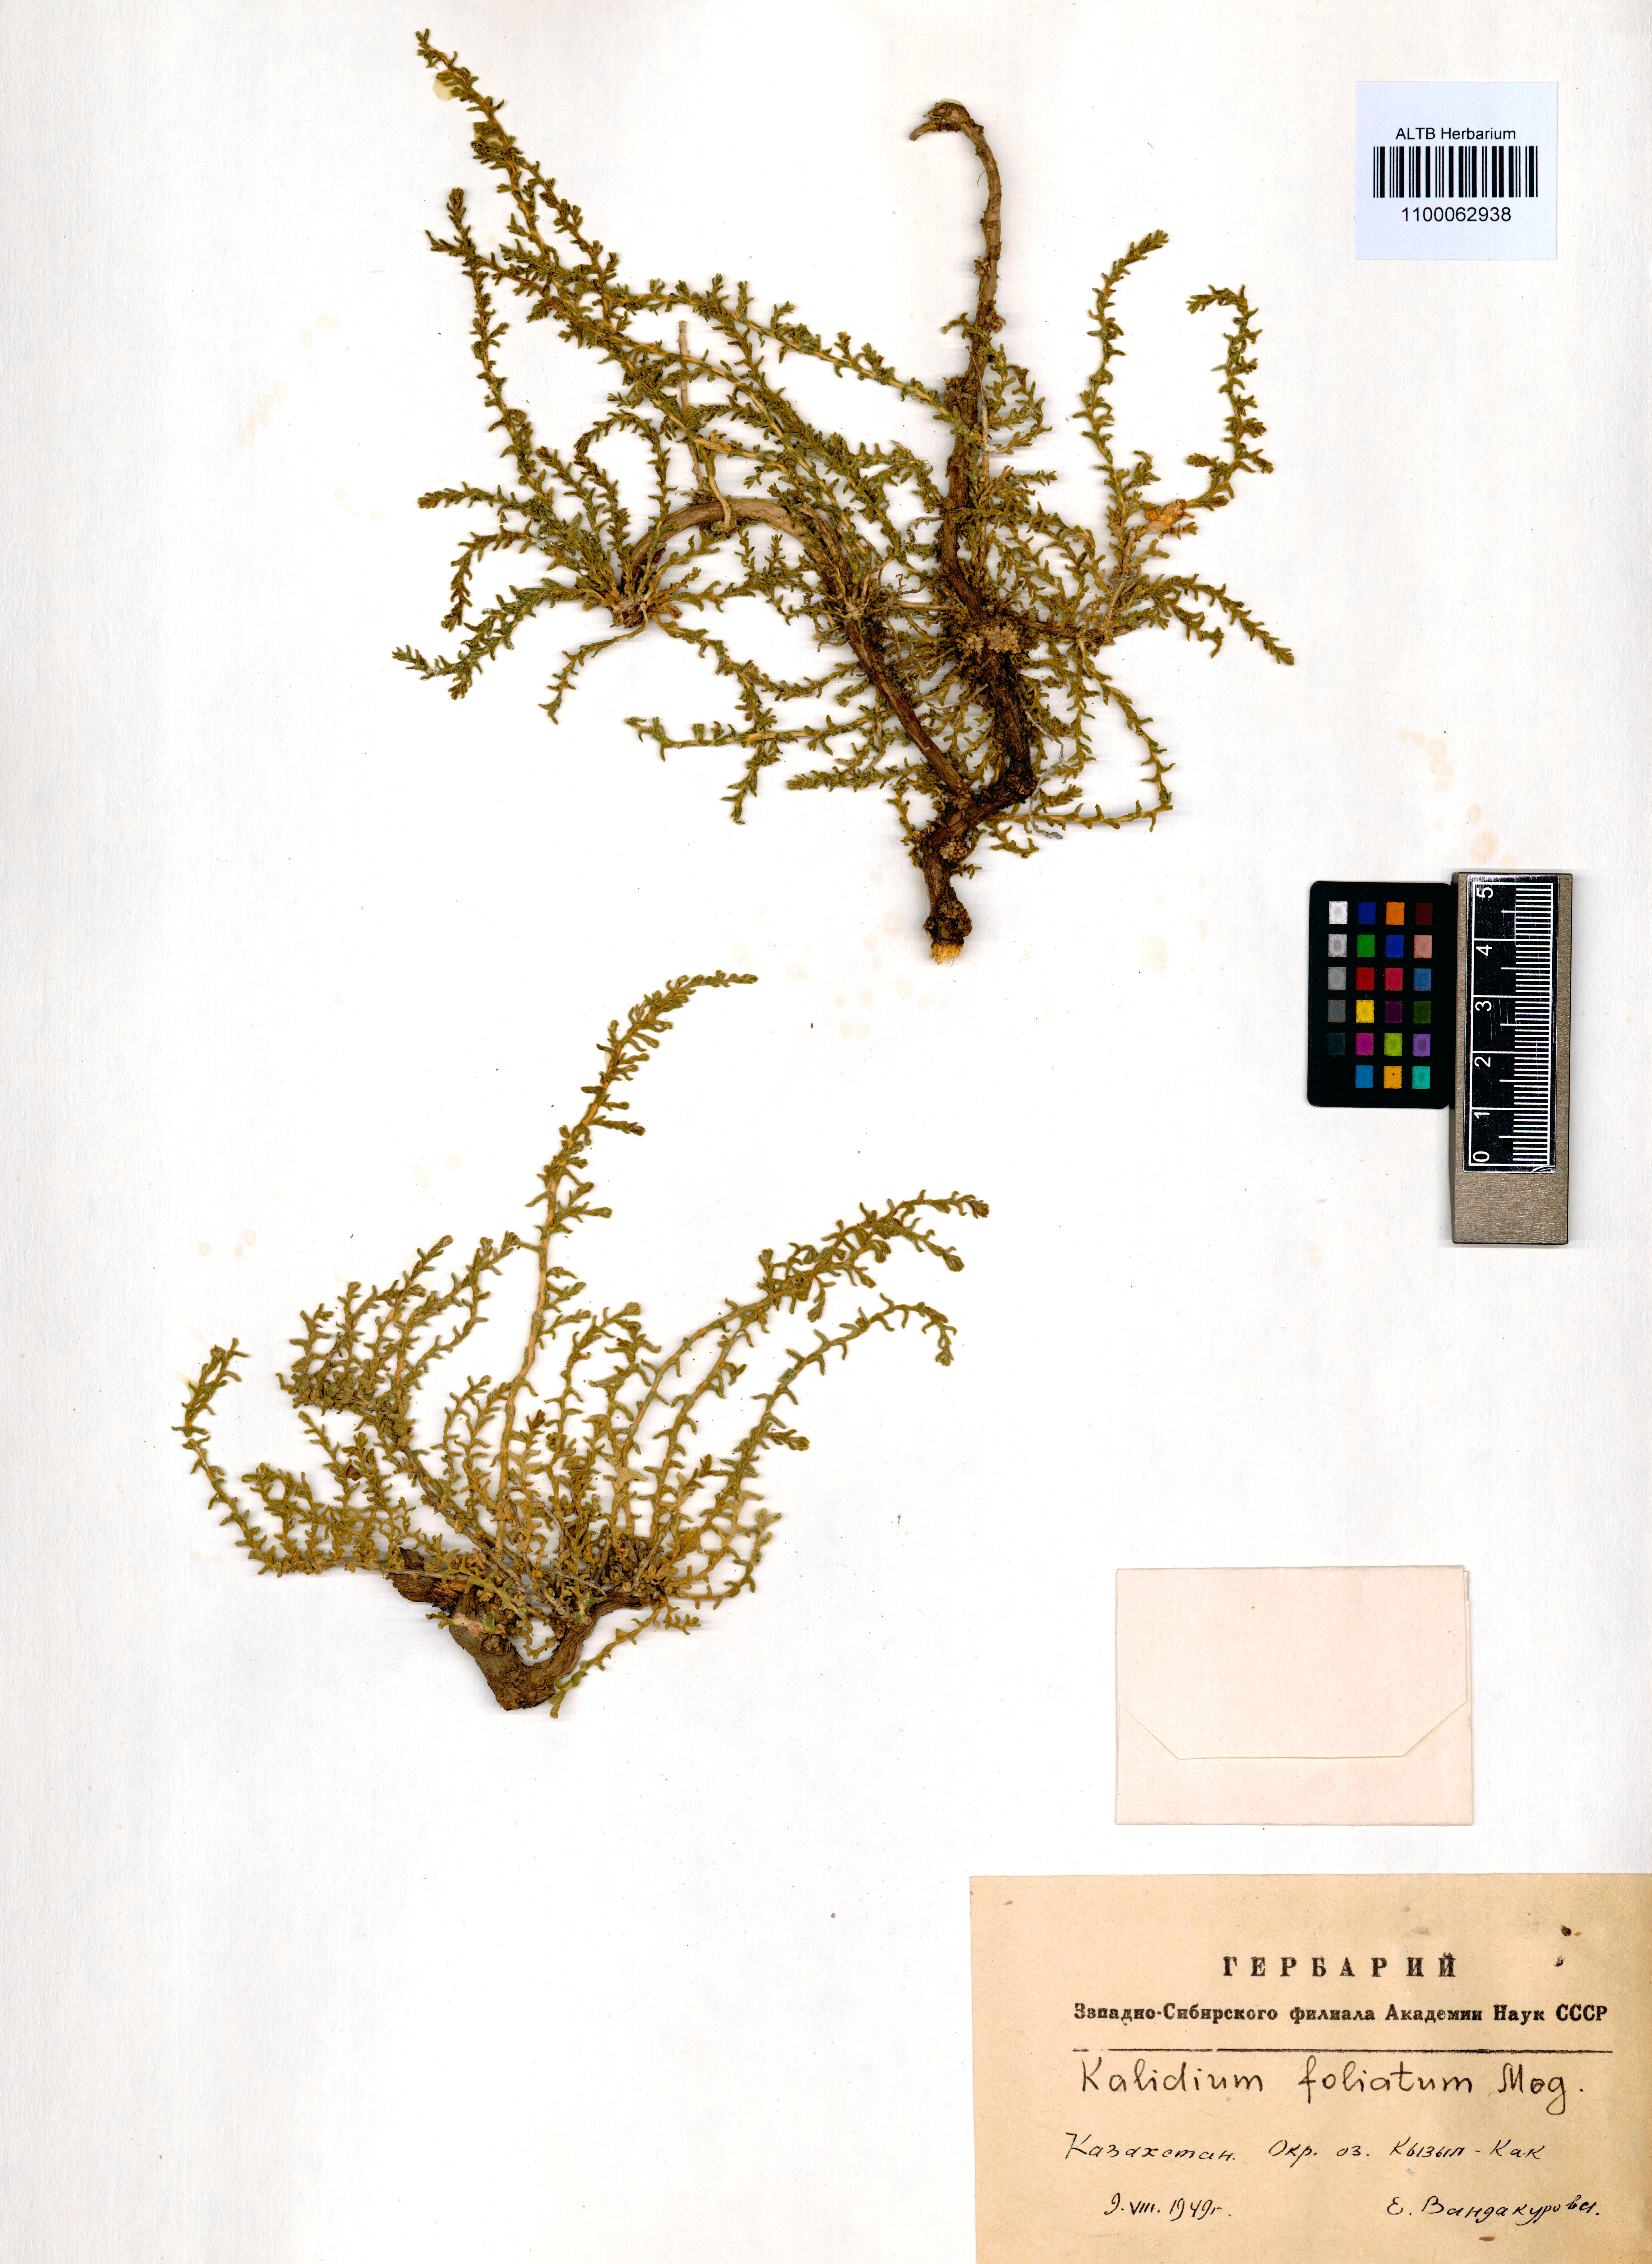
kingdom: Plantae
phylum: Tracheophyta
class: Magnoliopsida
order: Caryophyllales
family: Amaranthaceae
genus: Kalidium
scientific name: Kalidium foliatum
